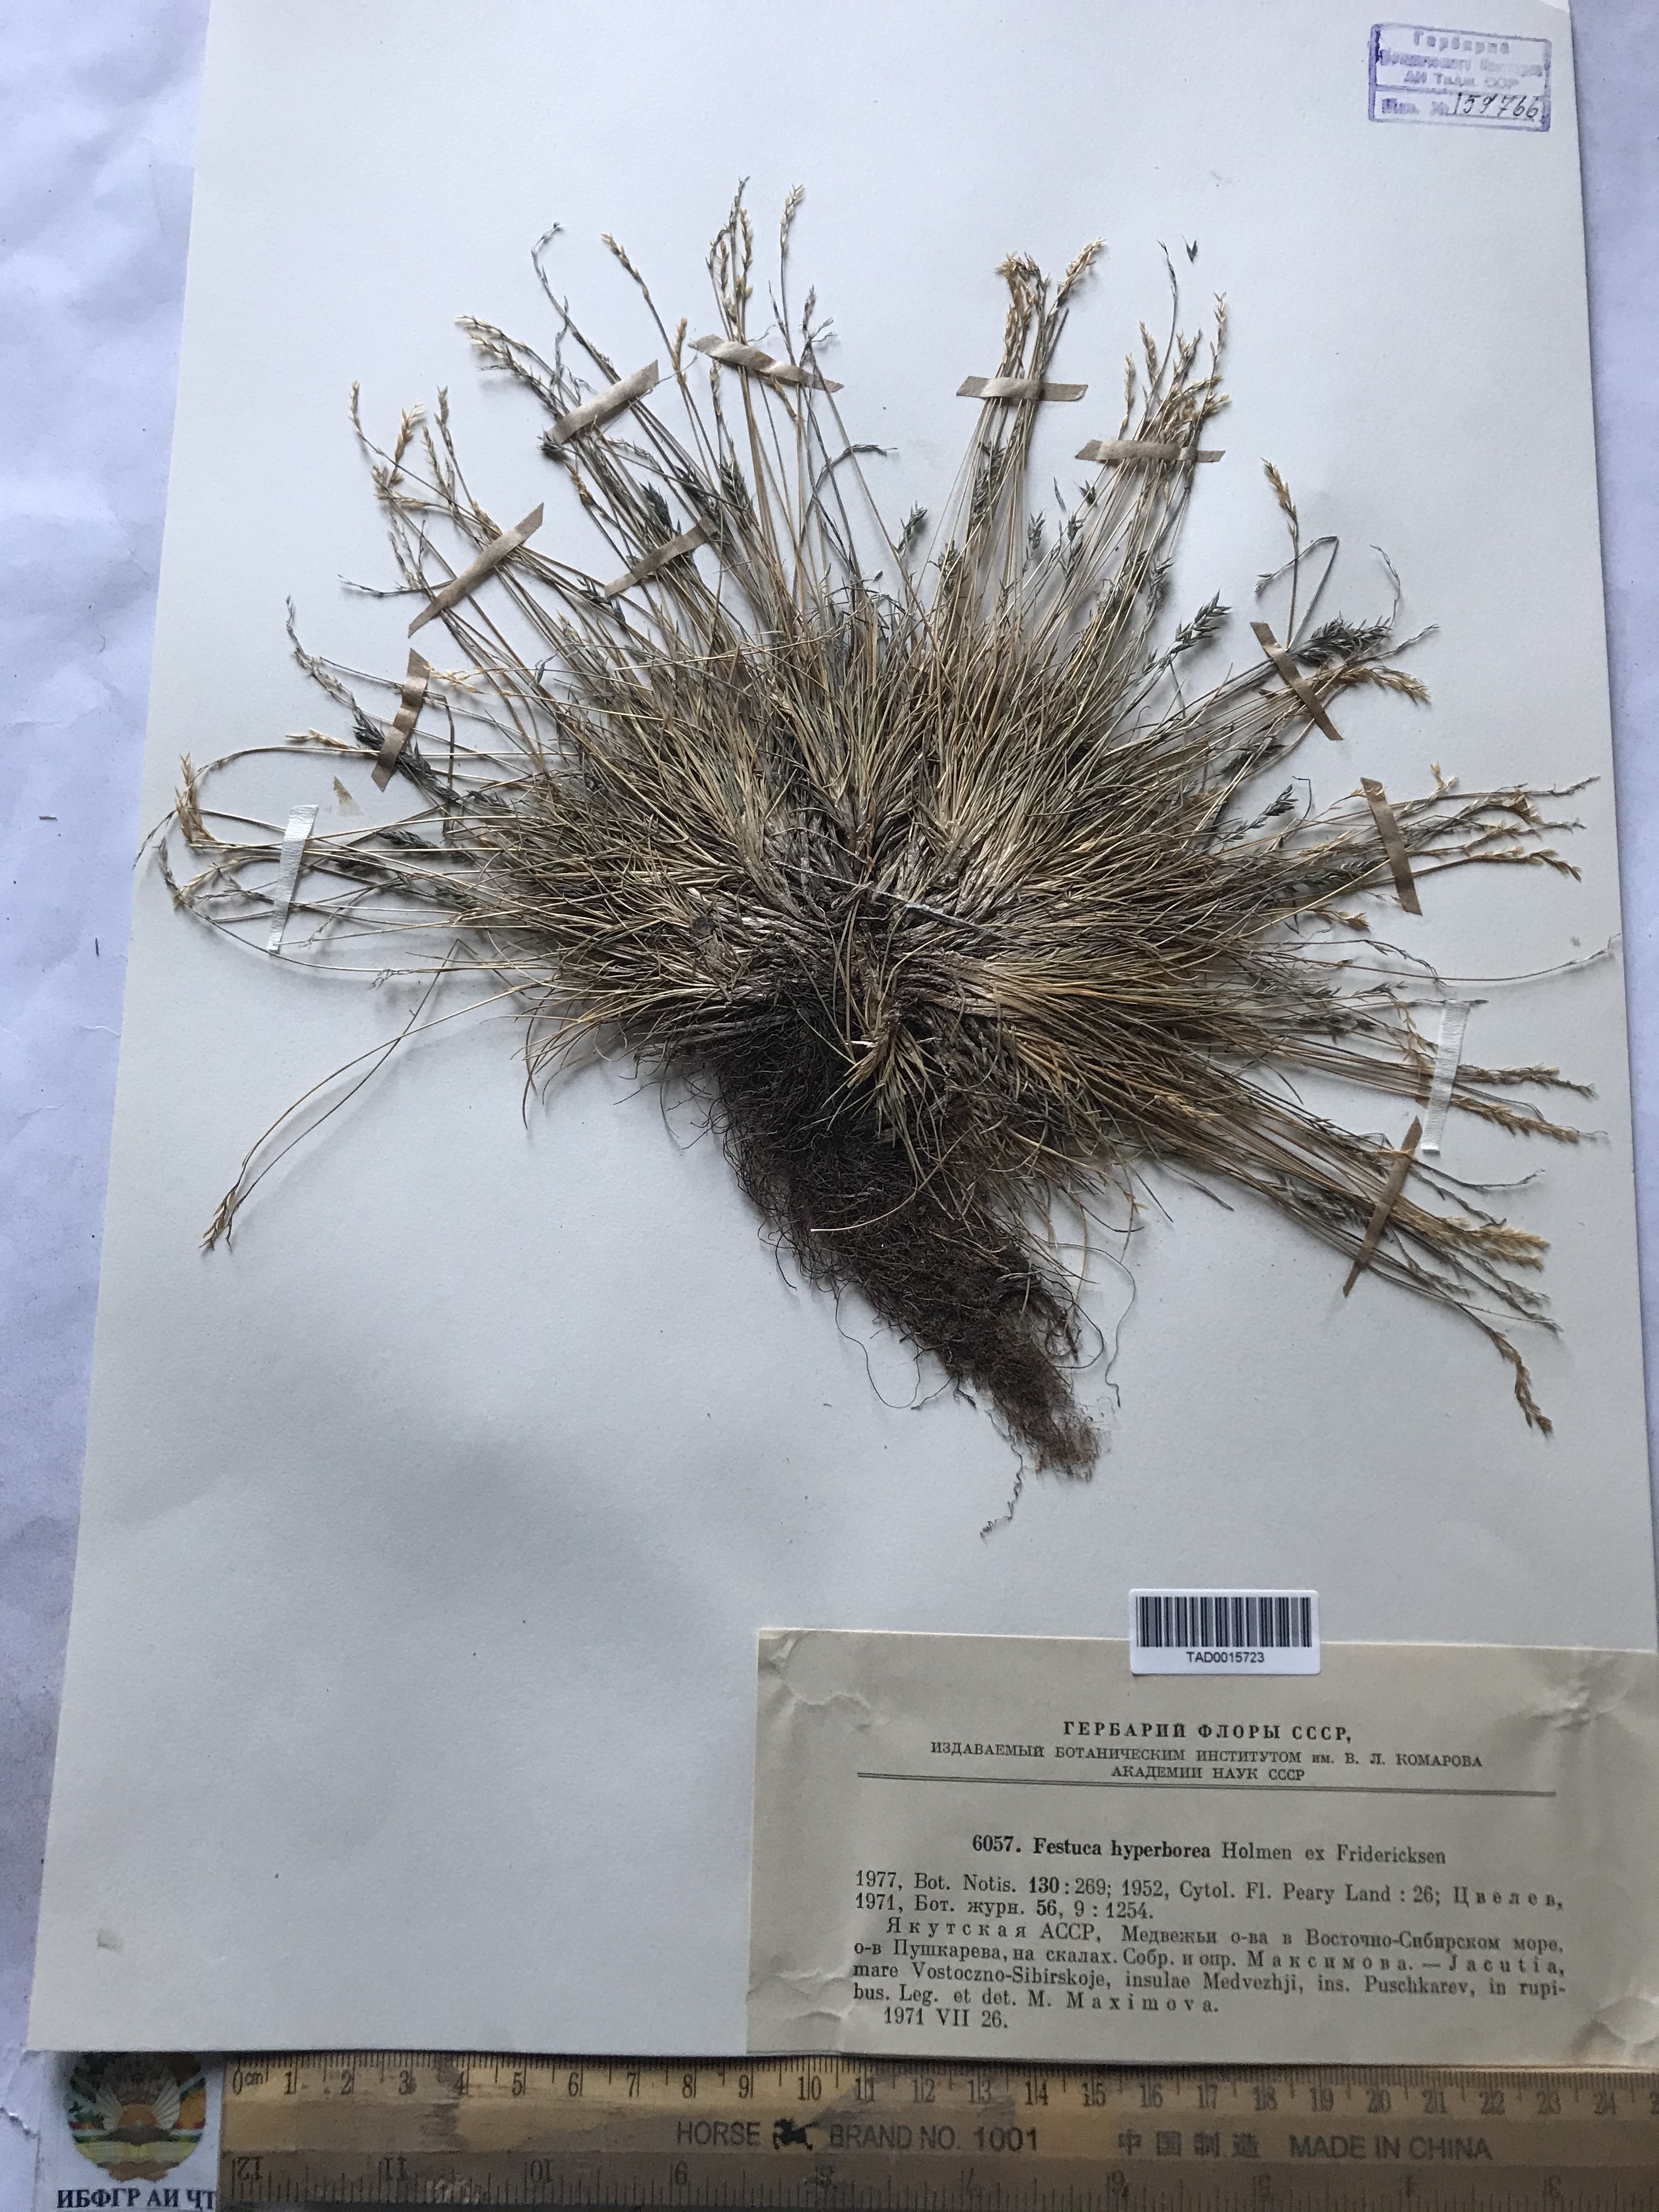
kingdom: Plantae
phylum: Tracheophyta
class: Liliopsida
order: Poales
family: Poaceae
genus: Festuca
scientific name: Festuca hyperborea
